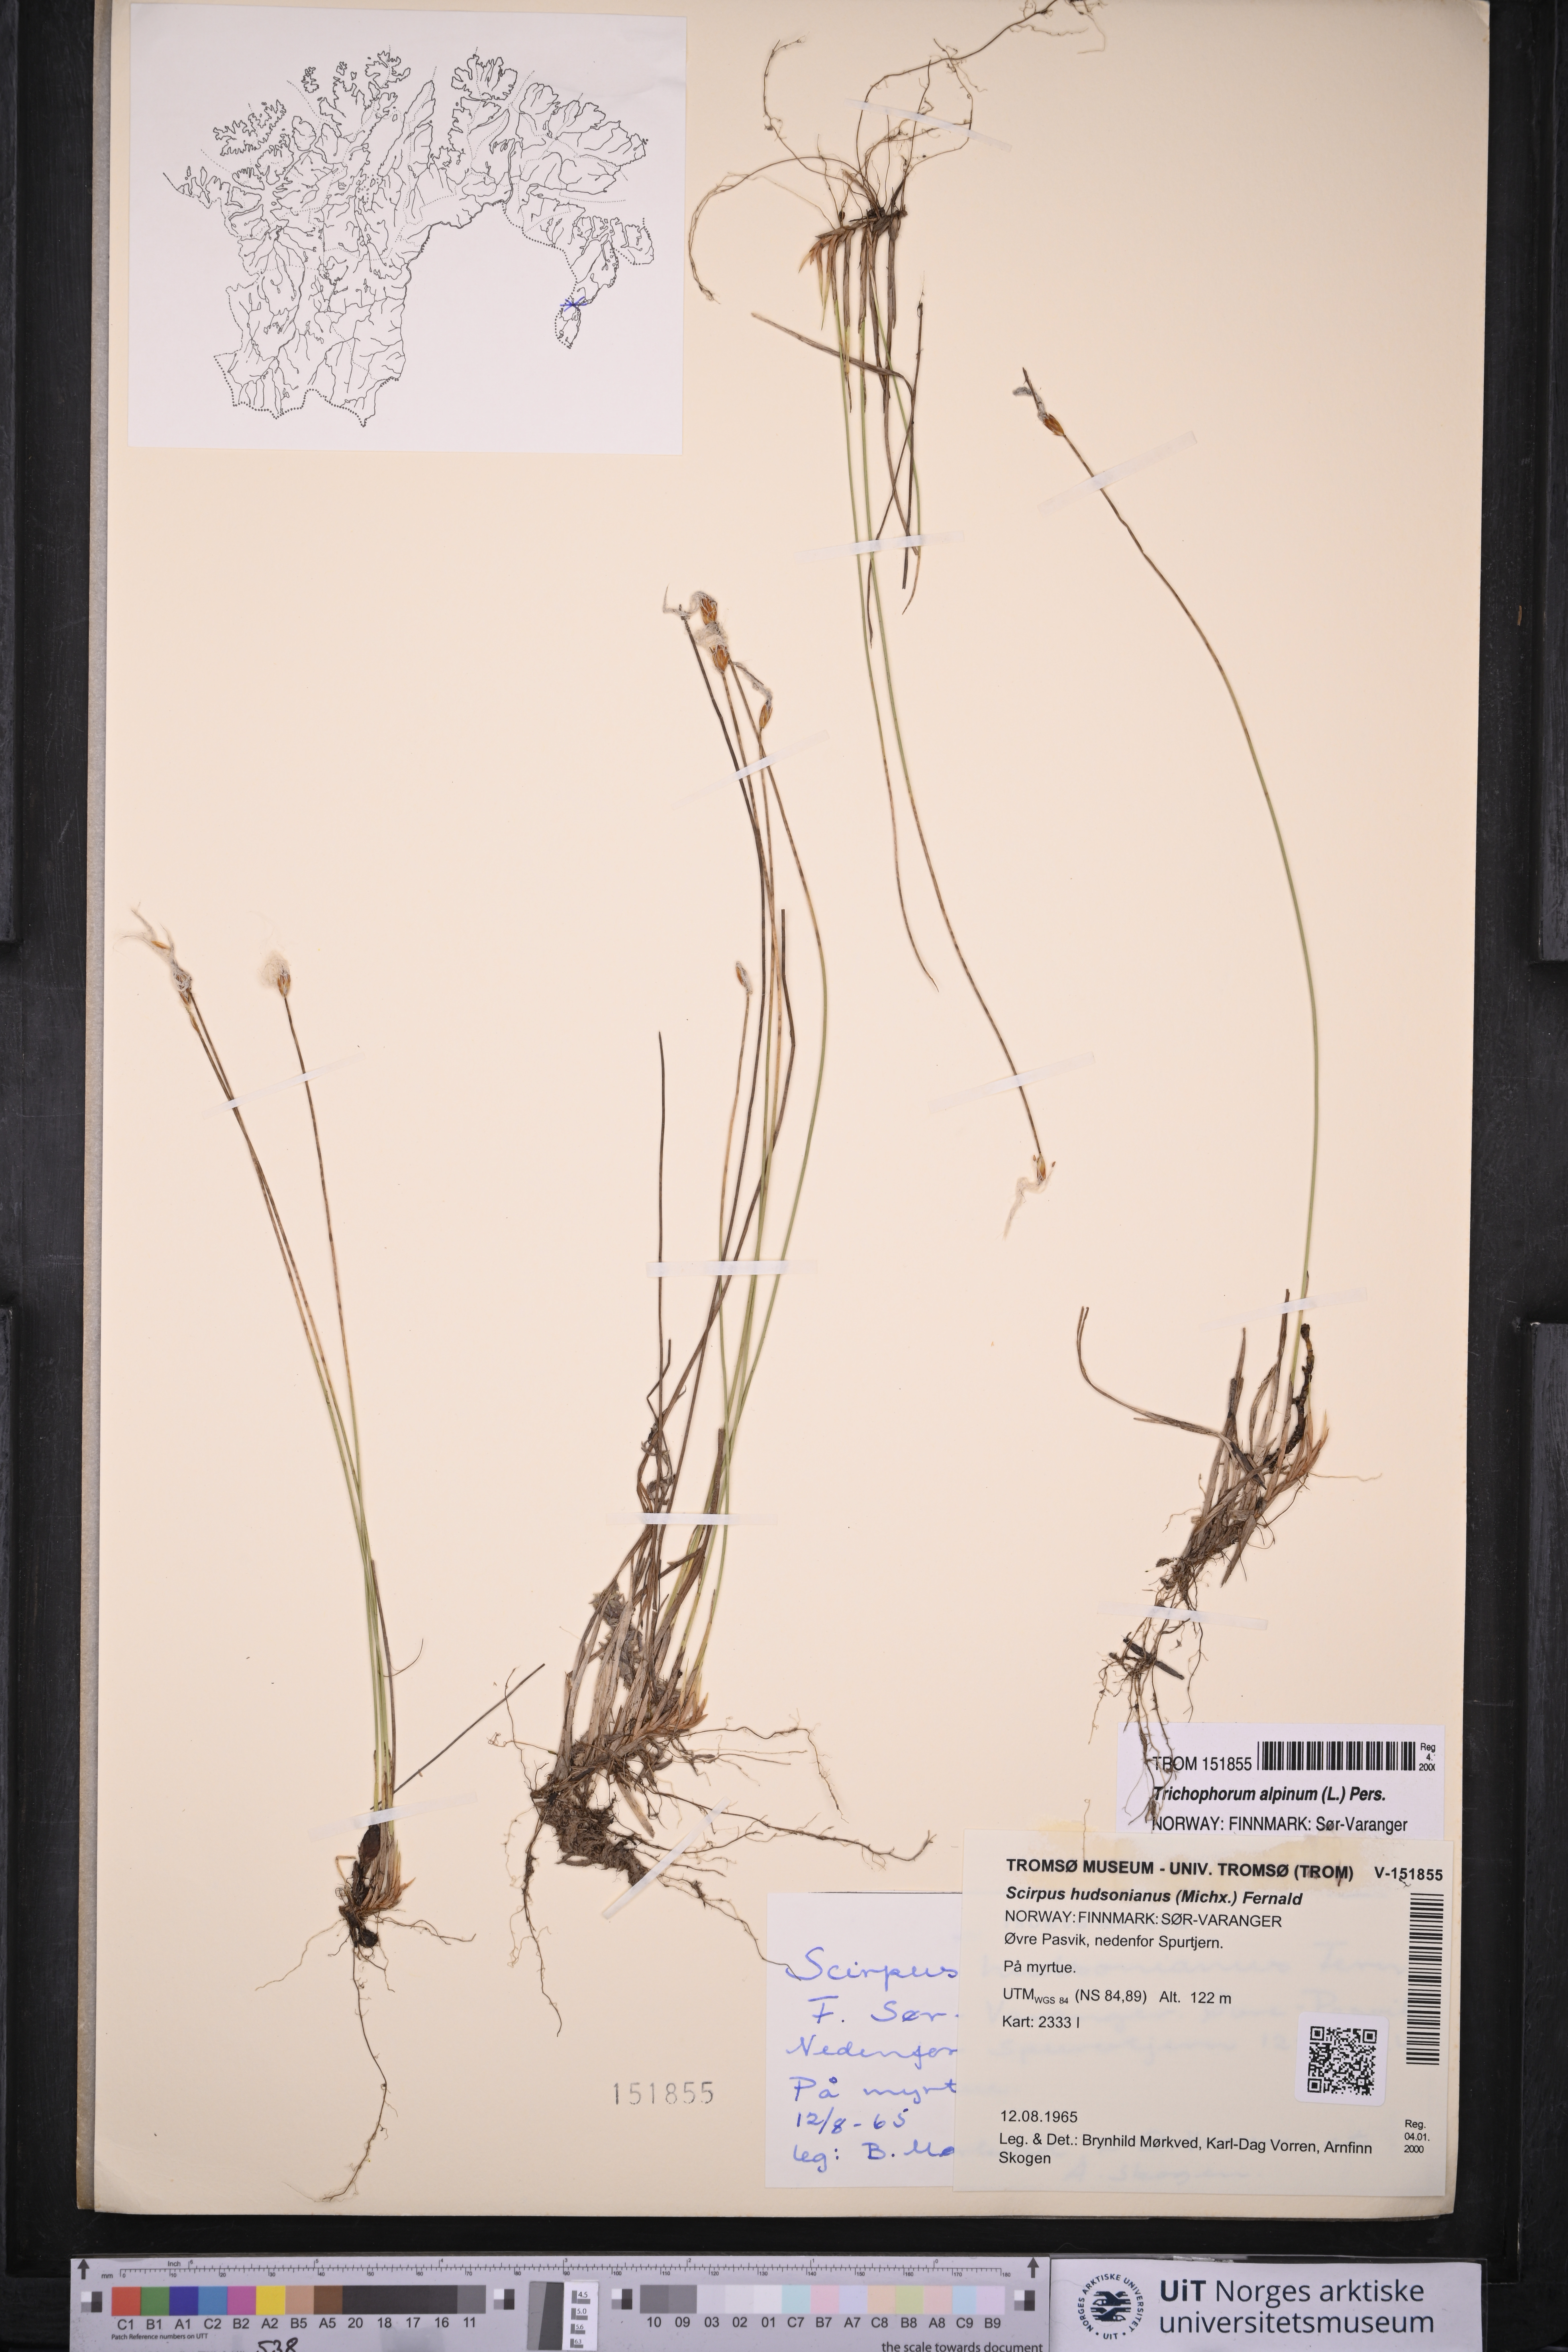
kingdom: Plantae
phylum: Tracheophyta
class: Liliopsida
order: Poales
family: Cyperaceae
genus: Trichophorum
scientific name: Trichophorum alpinum
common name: Alpine bulrush
